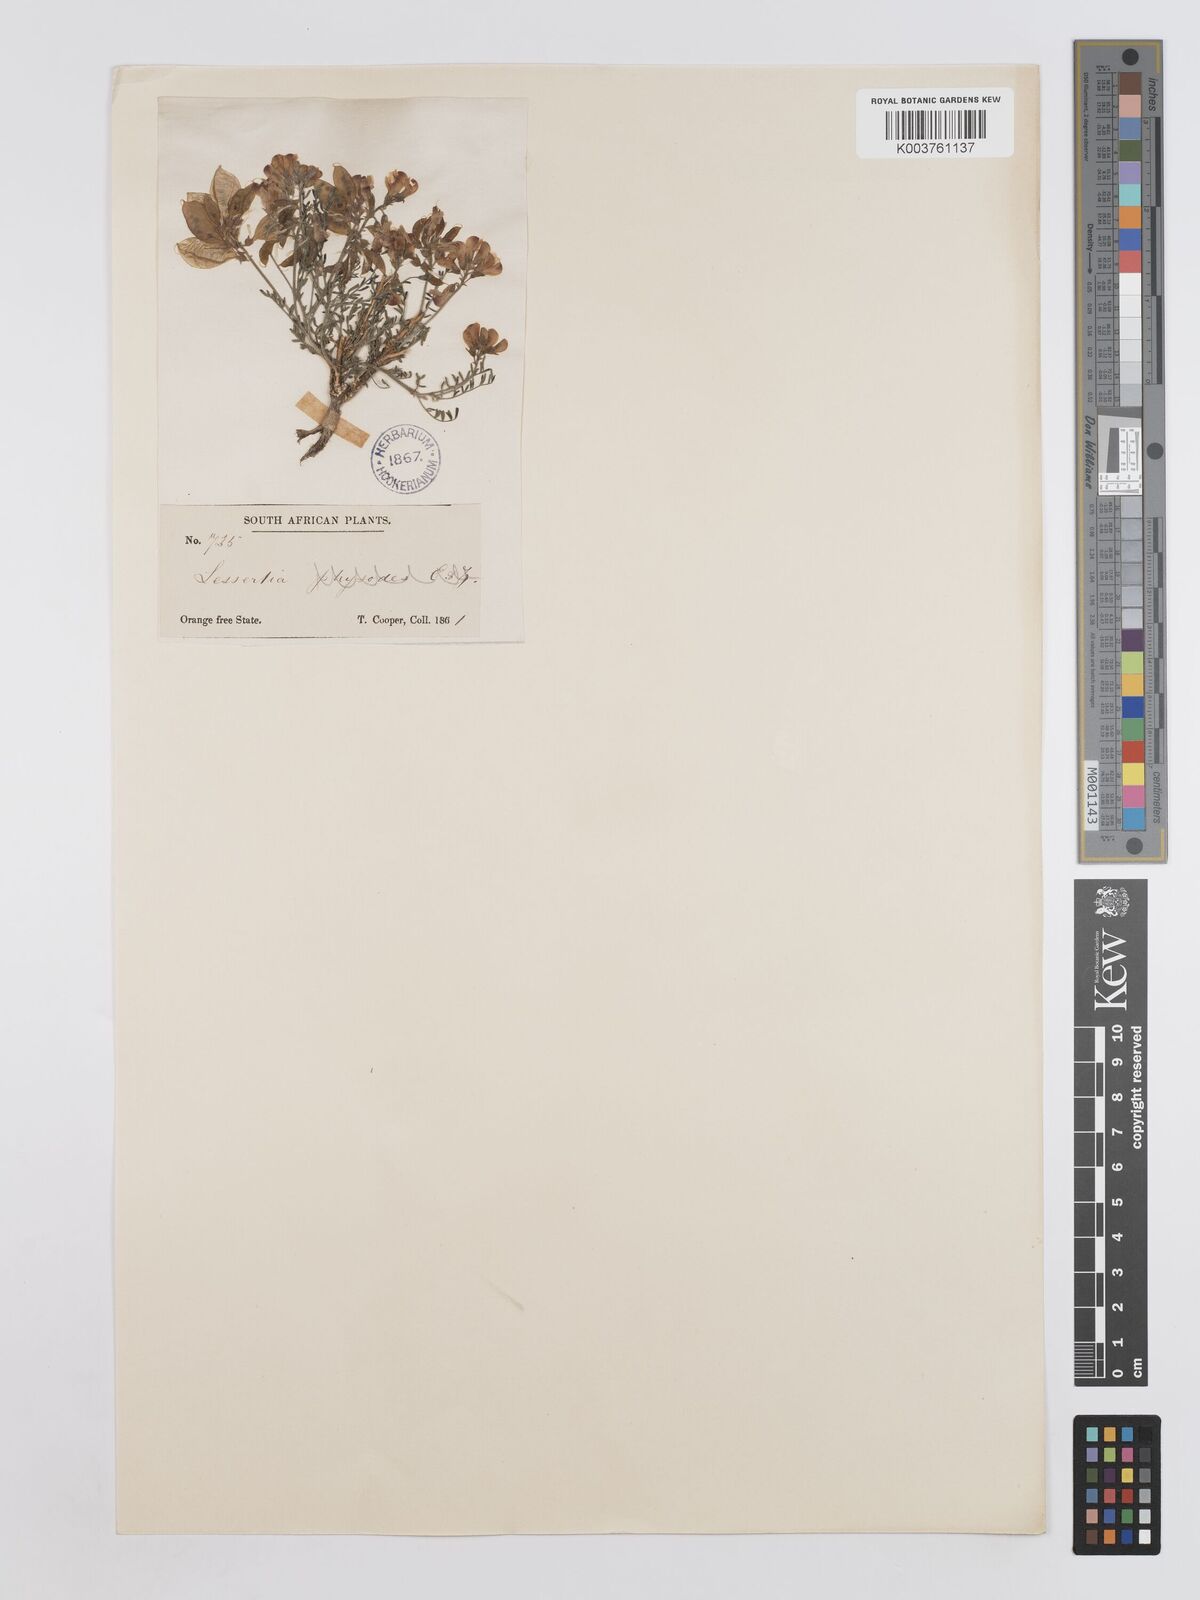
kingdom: Plantae
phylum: Tracheophyta
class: Magnoliopsida
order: Fabales
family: Fabaceae
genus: Lessertia
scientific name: Lessertia depressa
